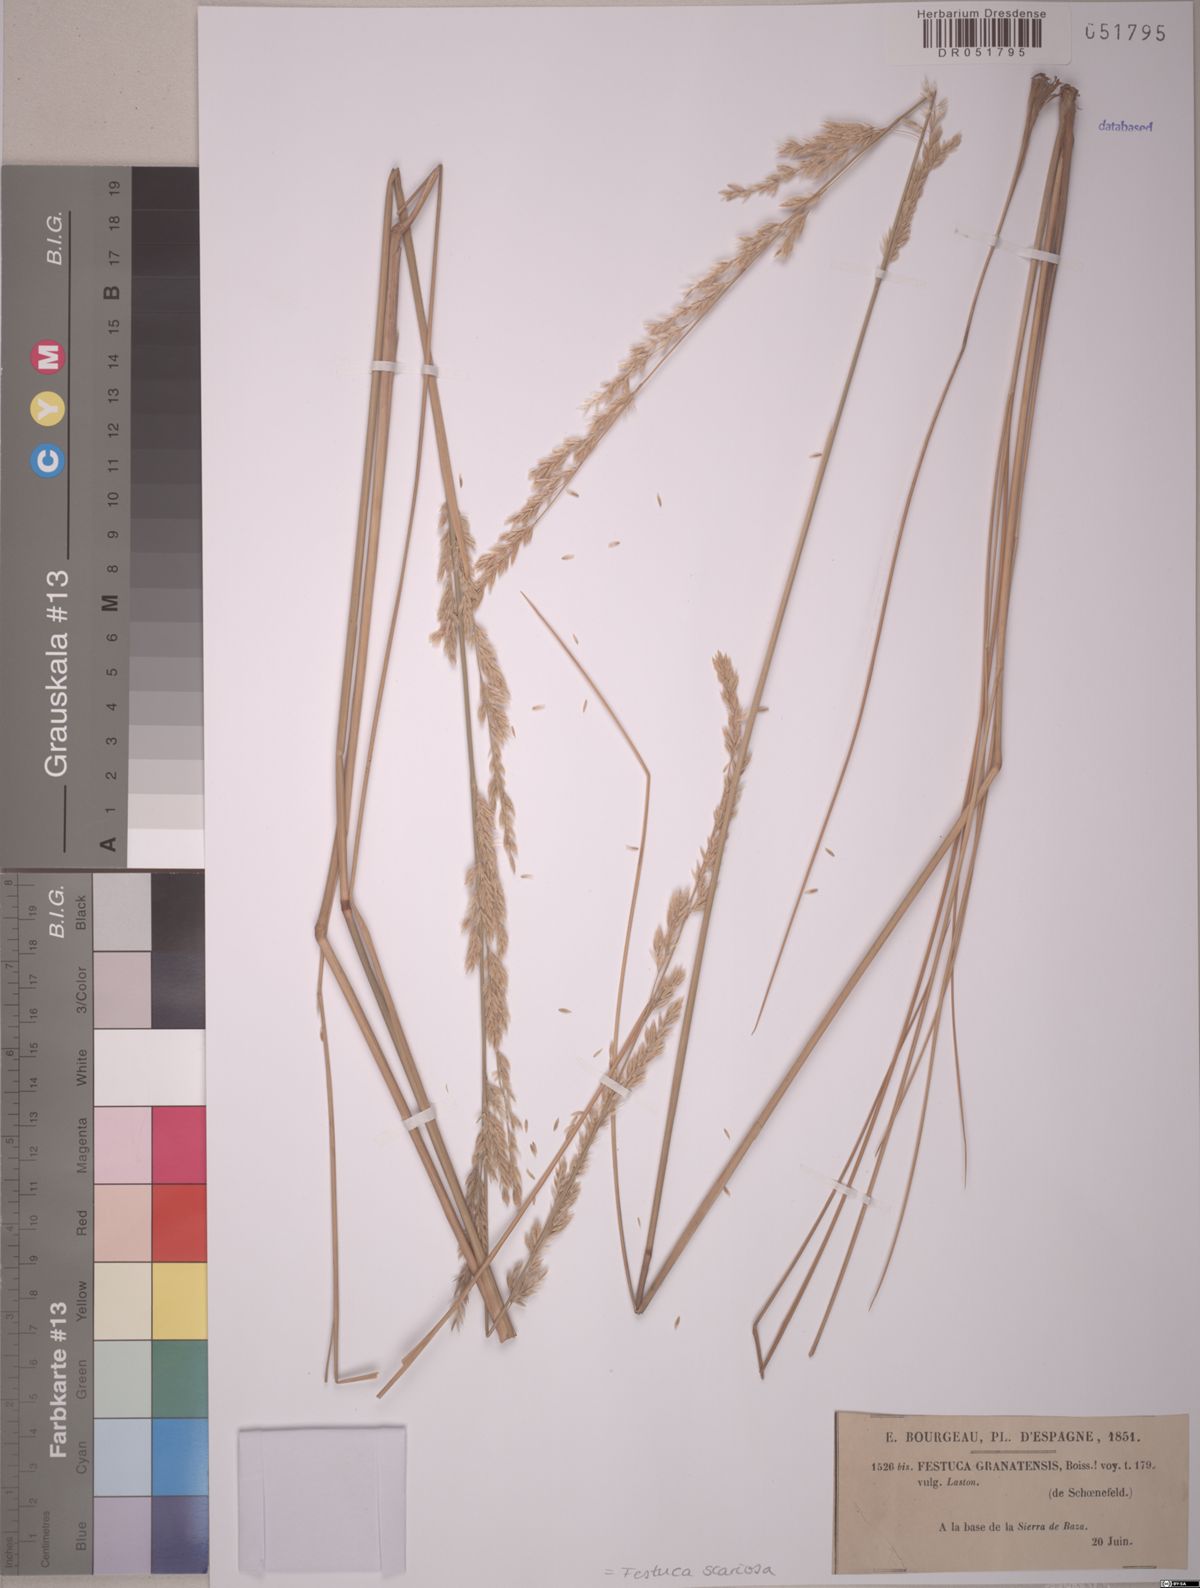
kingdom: Plantae
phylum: Tracheophyta
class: Liliopsida
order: Poales
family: Poaceae
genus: Festuca
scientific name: Festuca scariosa
